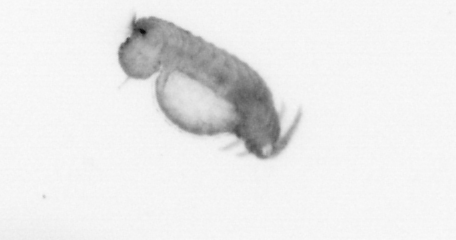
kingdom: Animalia
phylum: Annelida
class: Polychaeta
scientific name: Polychaeta
